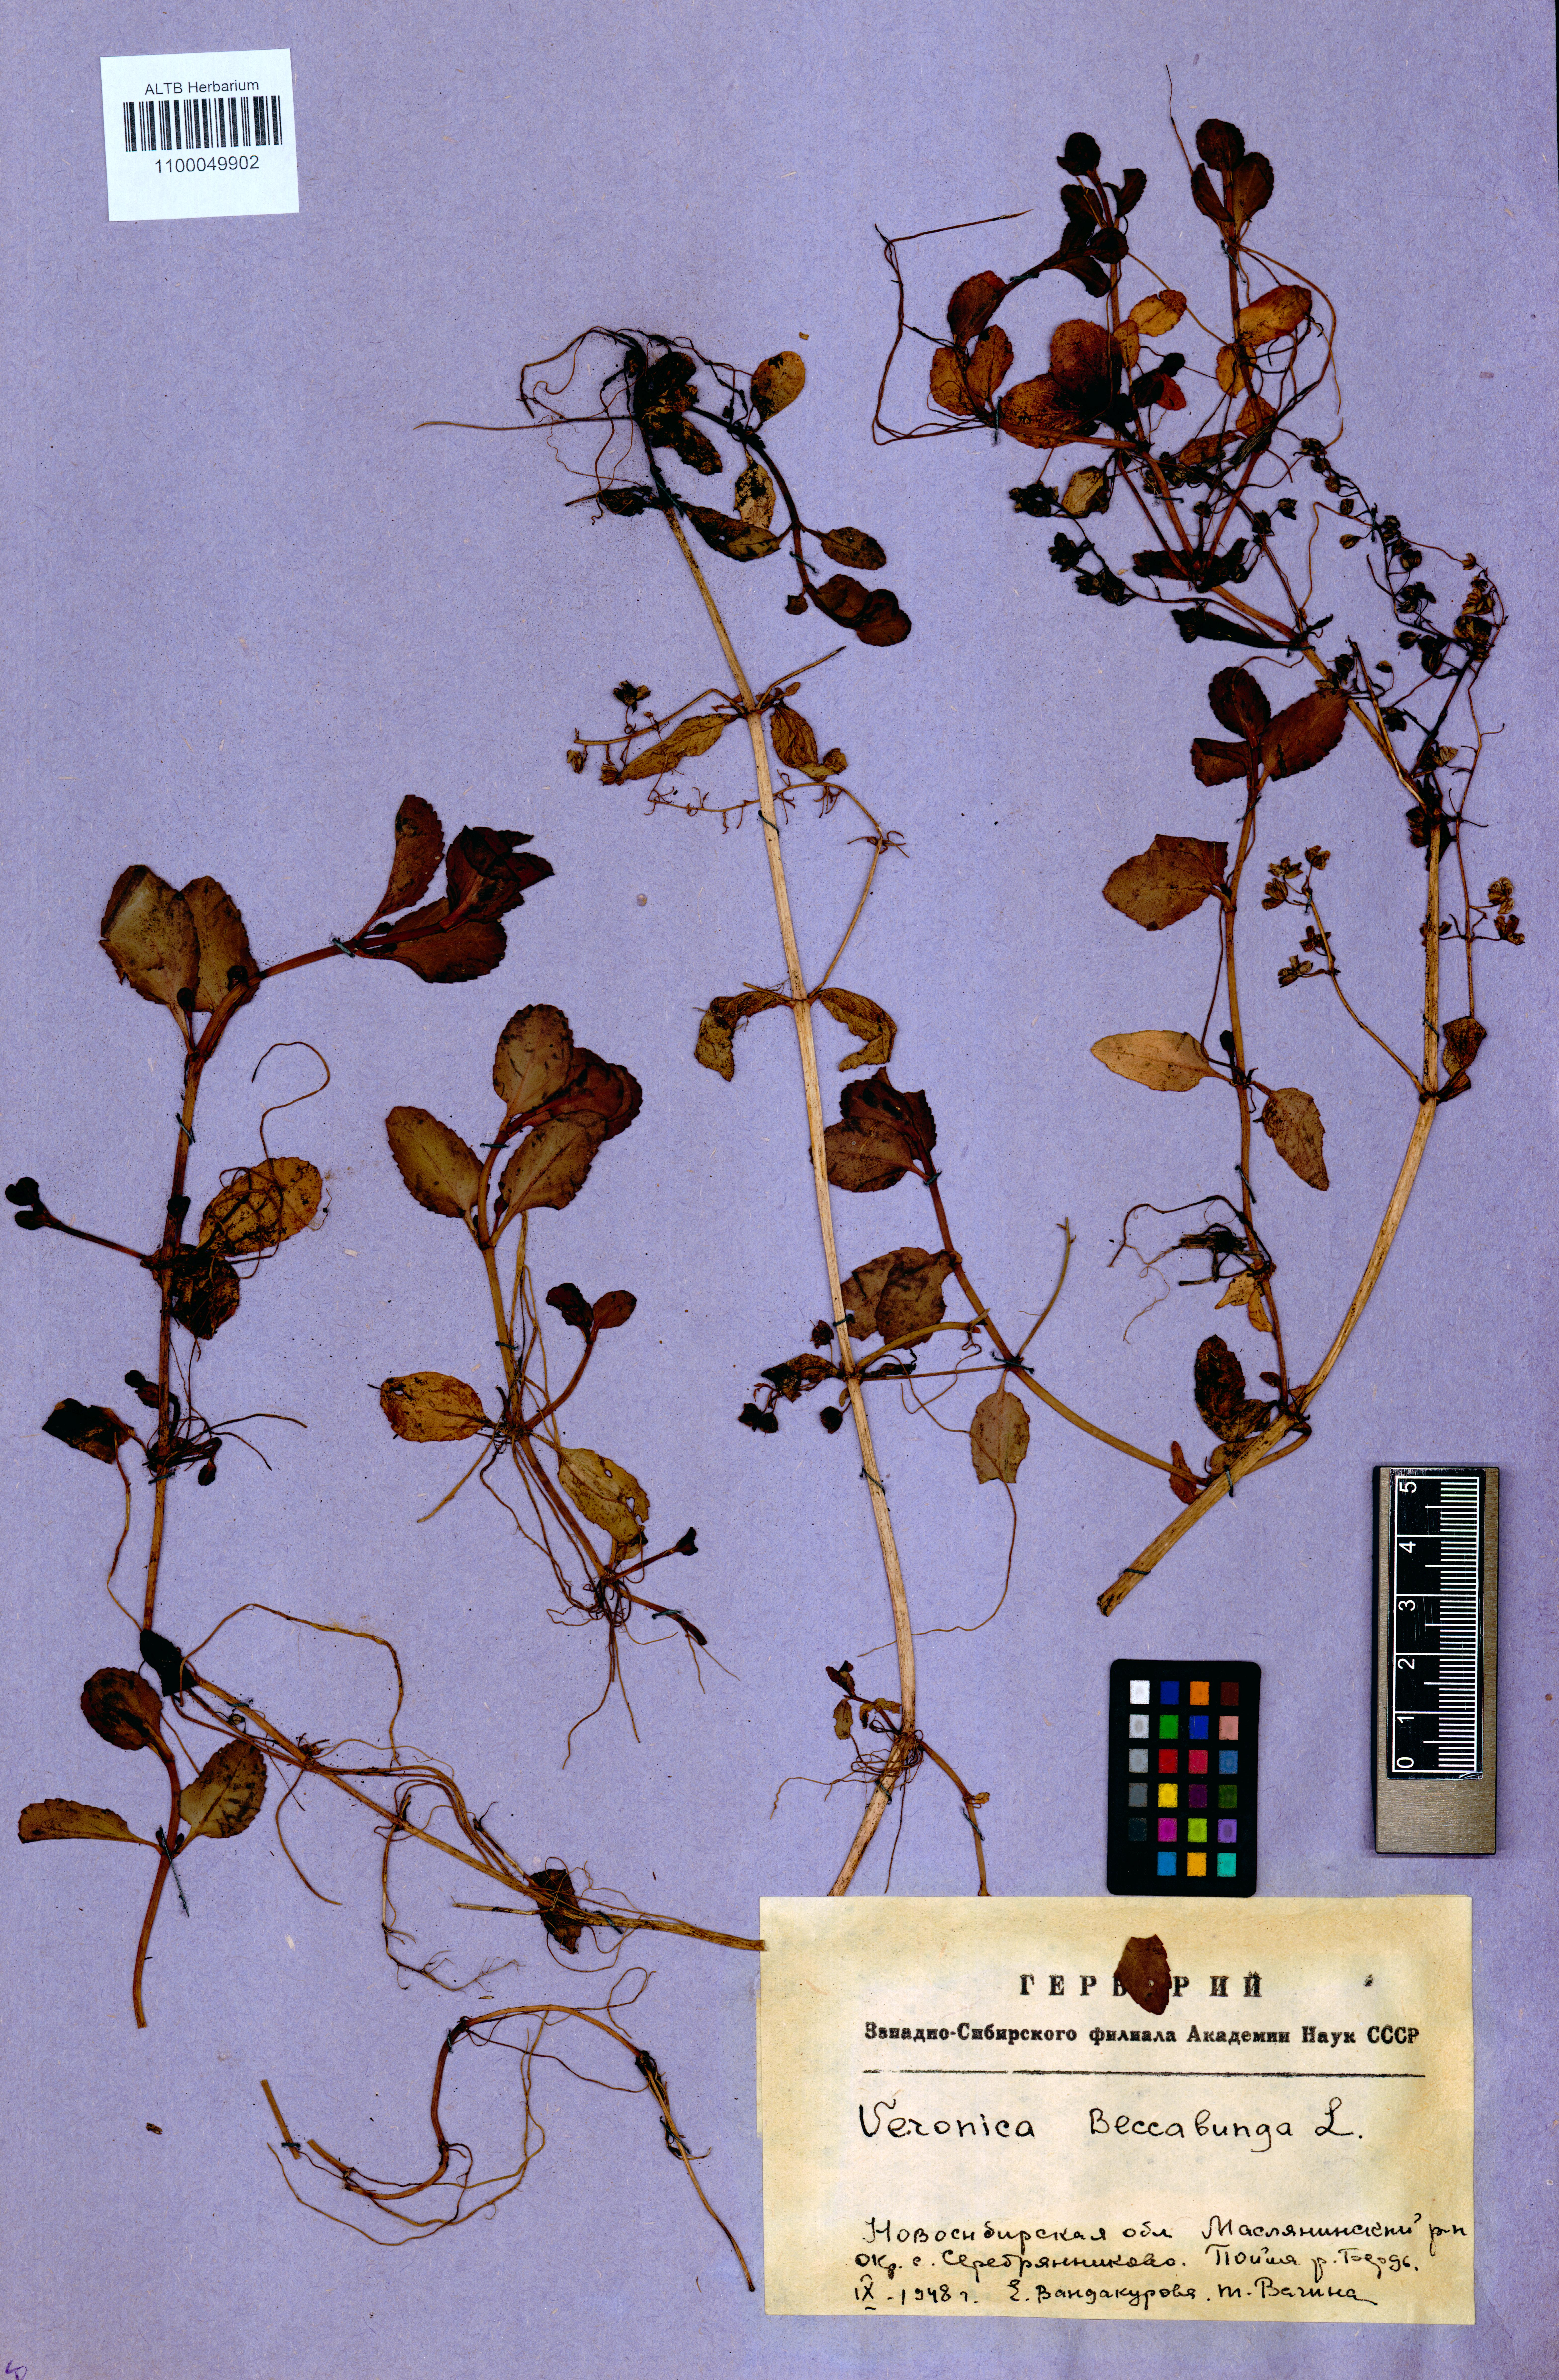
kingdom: Plantae
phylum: Tracheophyta
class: Magnoliopsida
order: Lamiales
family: Plantaginaceae
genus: Veronica
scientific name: Veronica beccabunga
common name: Brooklime
